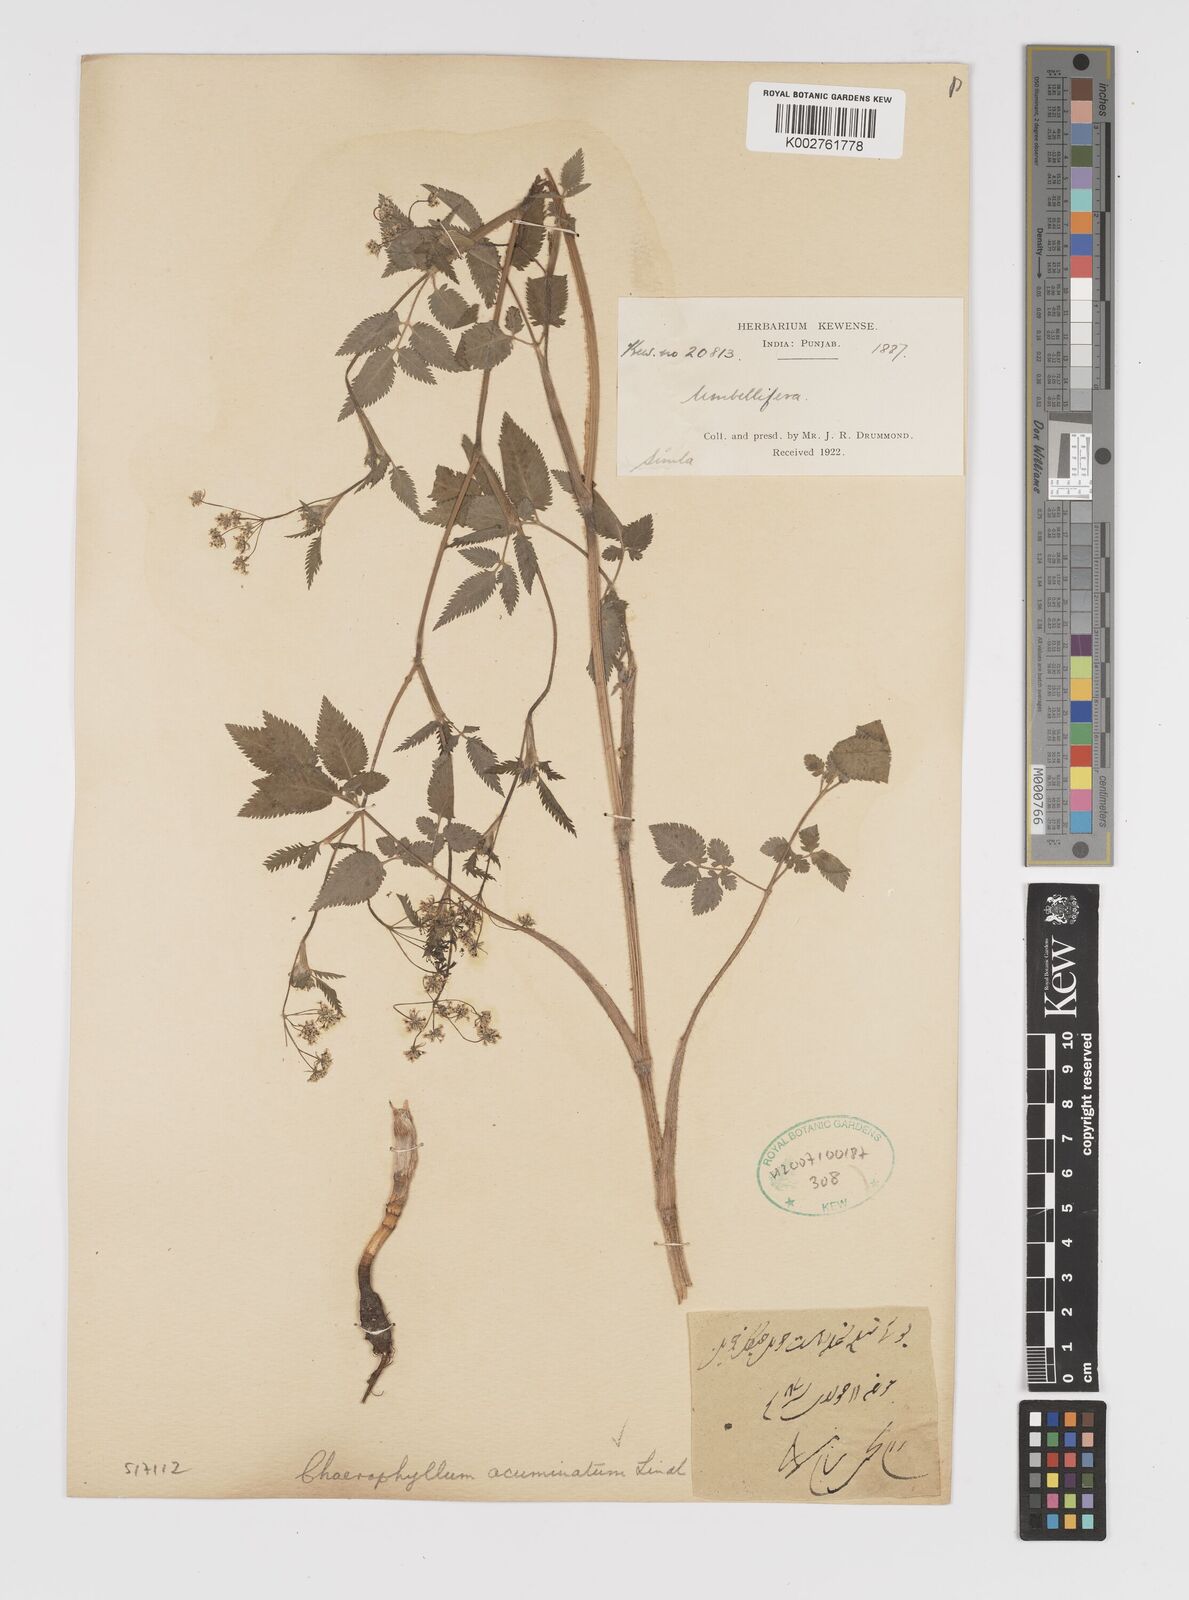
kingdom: Plantae
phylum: Tracheophyta
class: Magnoliopsida
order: Apiales
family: Apiaceae
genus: Chaerophyllum
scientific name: Chaerophyllum reflexum
